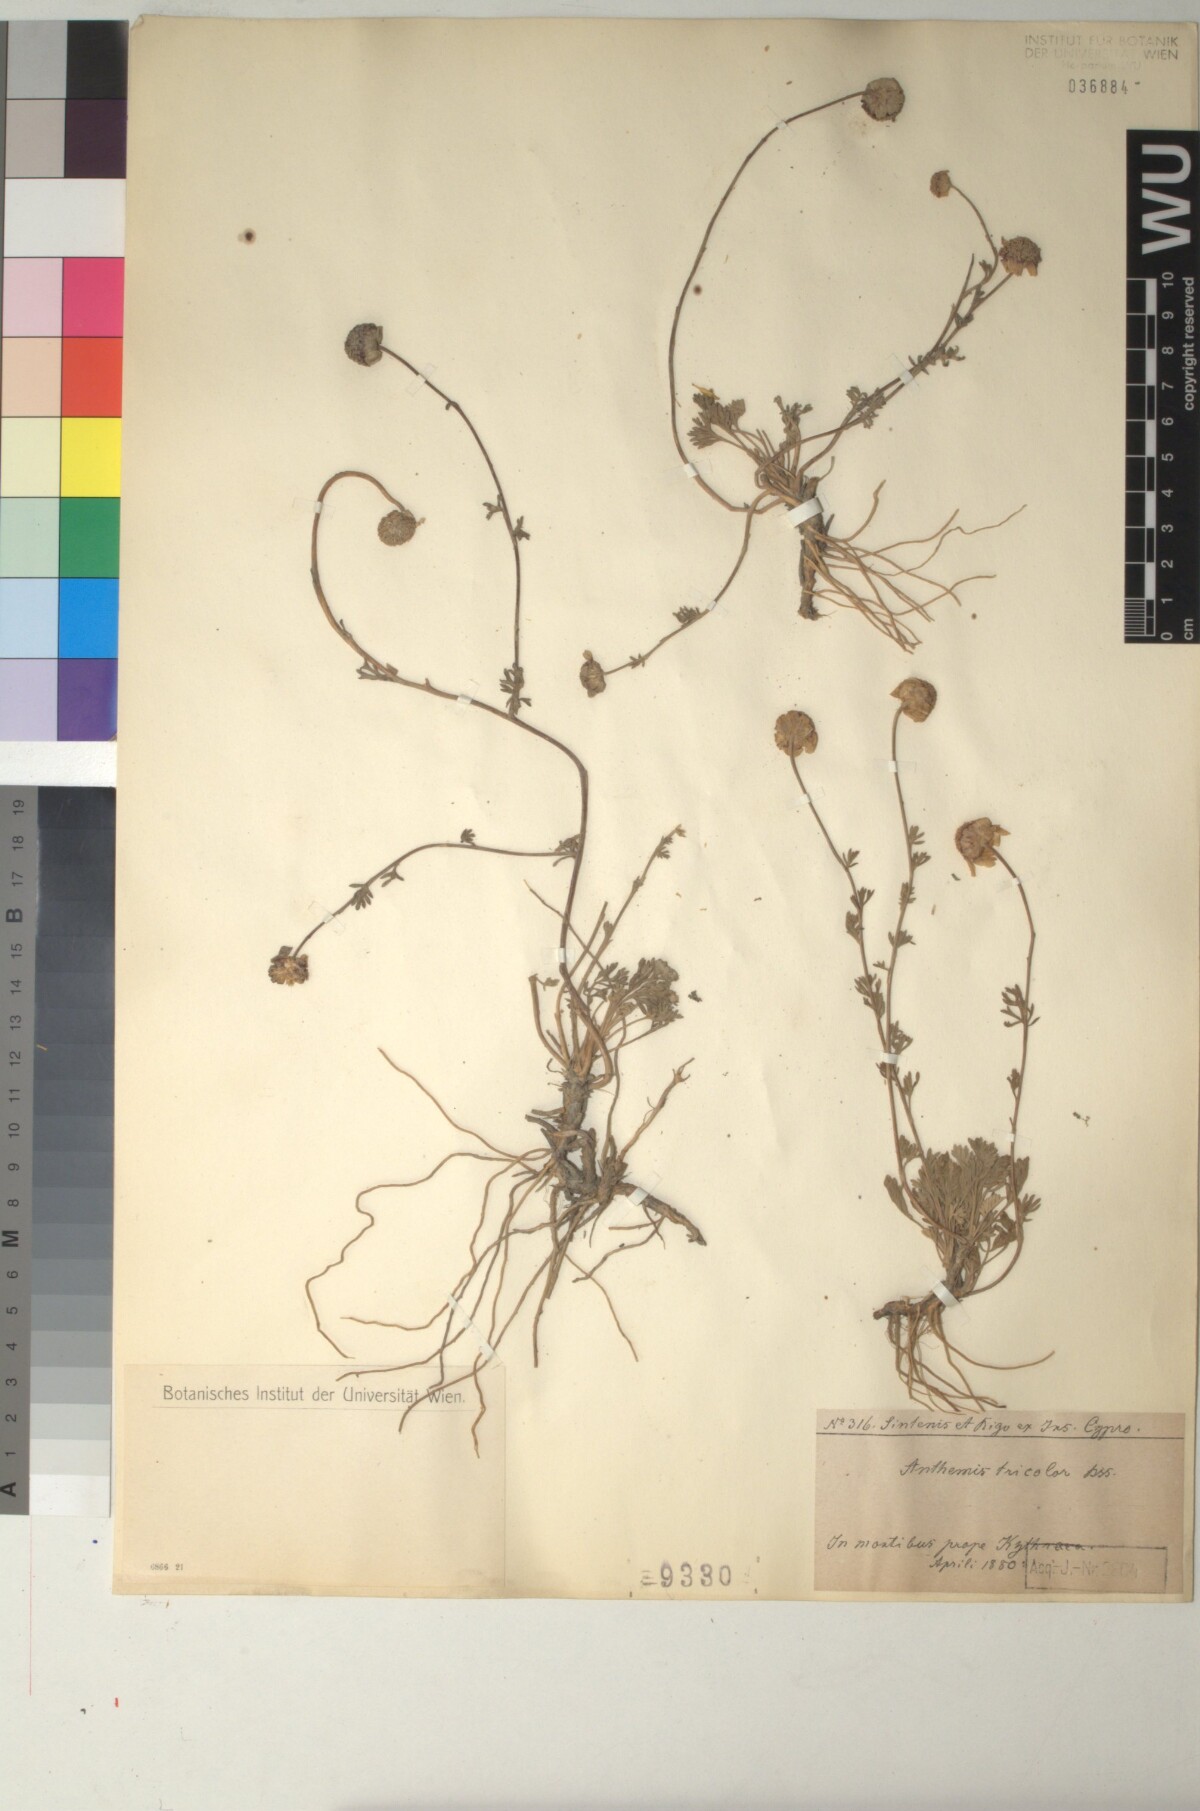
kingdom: Plantae
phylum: Tracheophyta
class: Magnoliopsida
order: Asterales
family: Asteraceae
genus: Anthemis
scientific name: Anthemis tricolor
